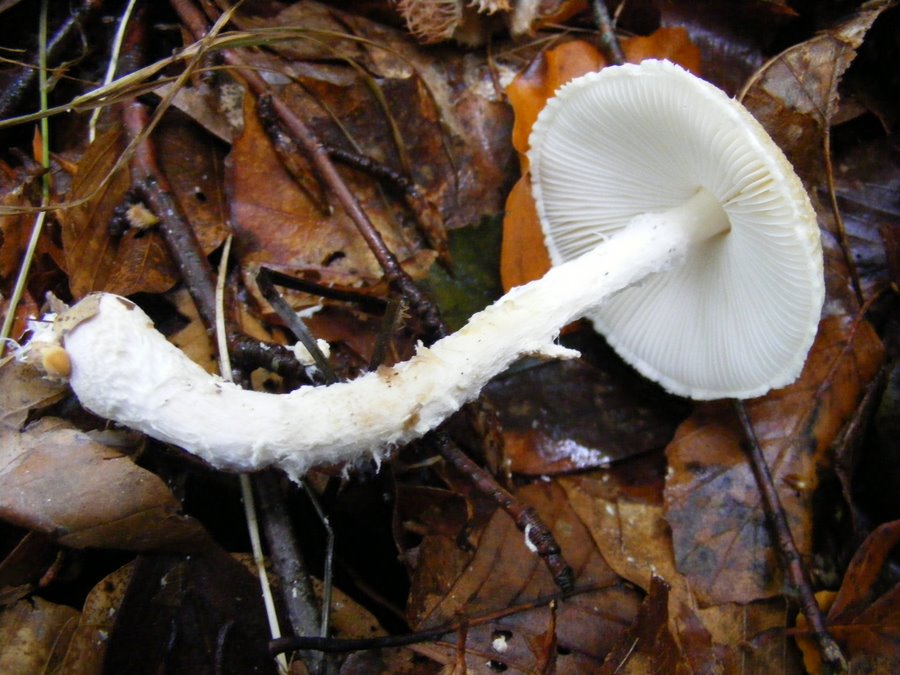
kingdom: Fungi
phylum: Basidiomycota
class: Agaricomycetes
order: Agaricales
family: Agaricaceae
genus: Lepiota
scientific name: Lepiota clypeolaria
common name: flosset parasolhat
